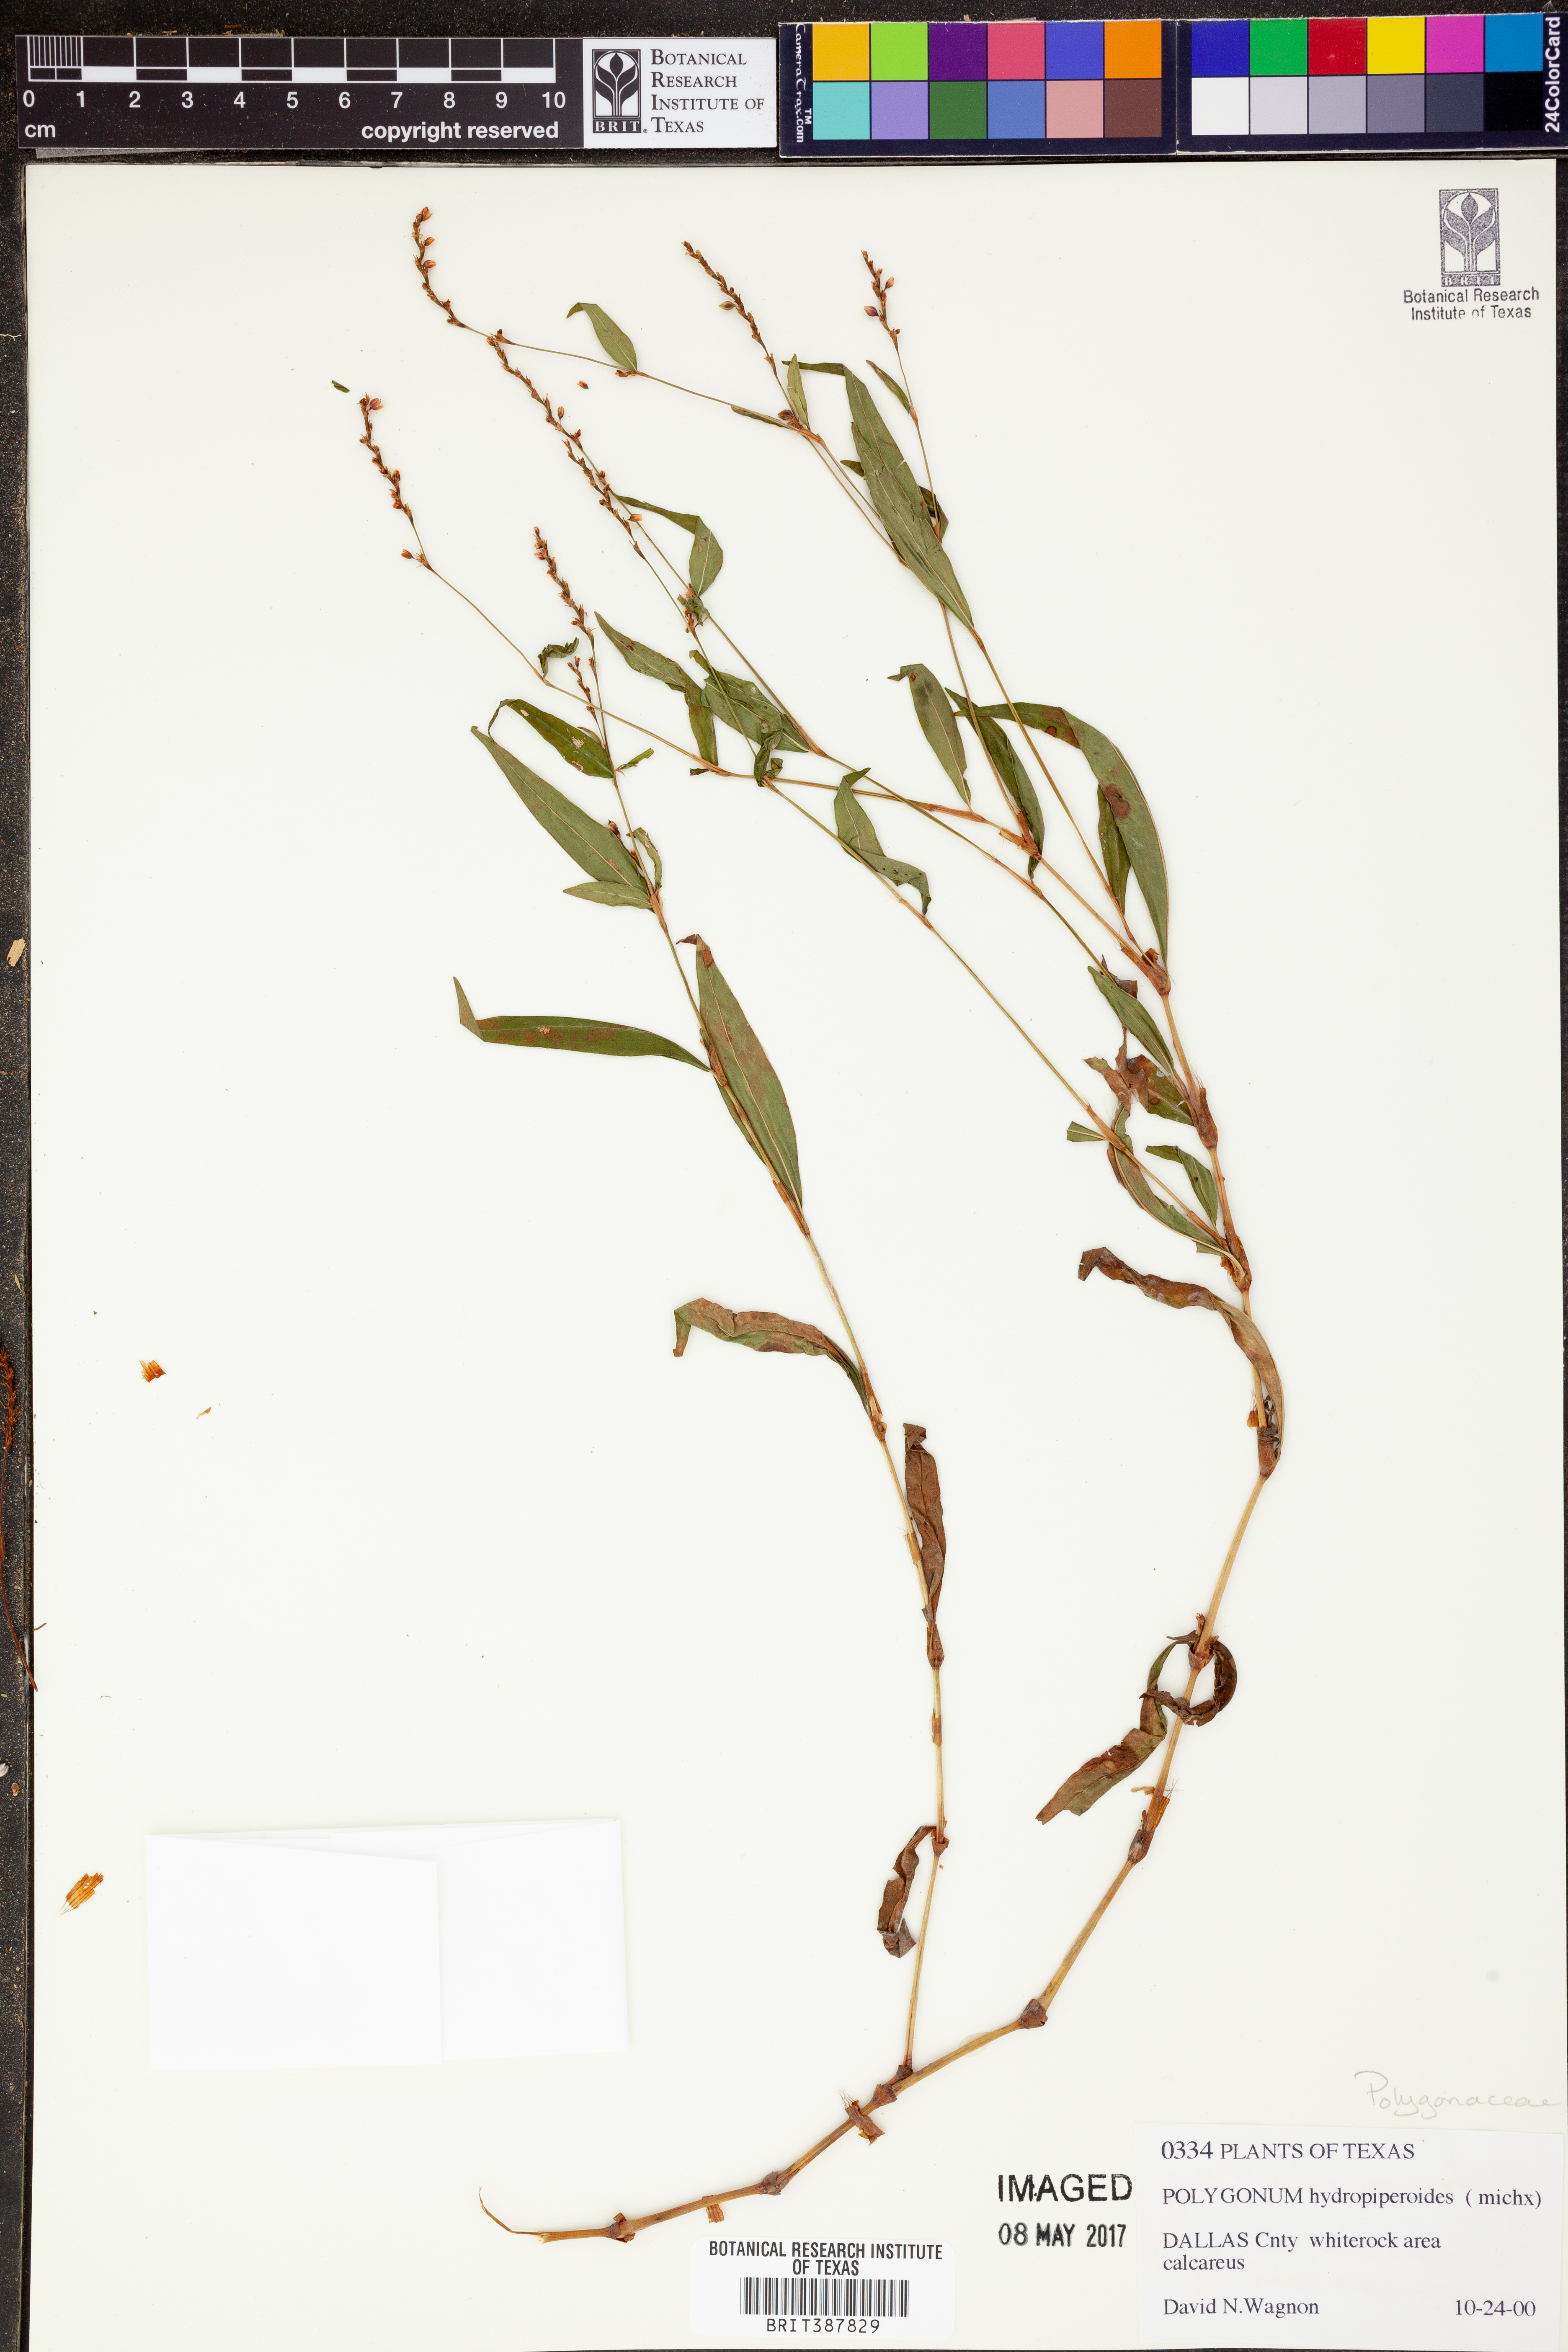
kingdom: Plantae
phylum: Tracheophyta
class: Magnoliopsida
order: Caryophyllales
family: Polygonaceae
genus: Persicaria
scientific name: Persicaria hydropiperoides
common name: Swamp smartweed
